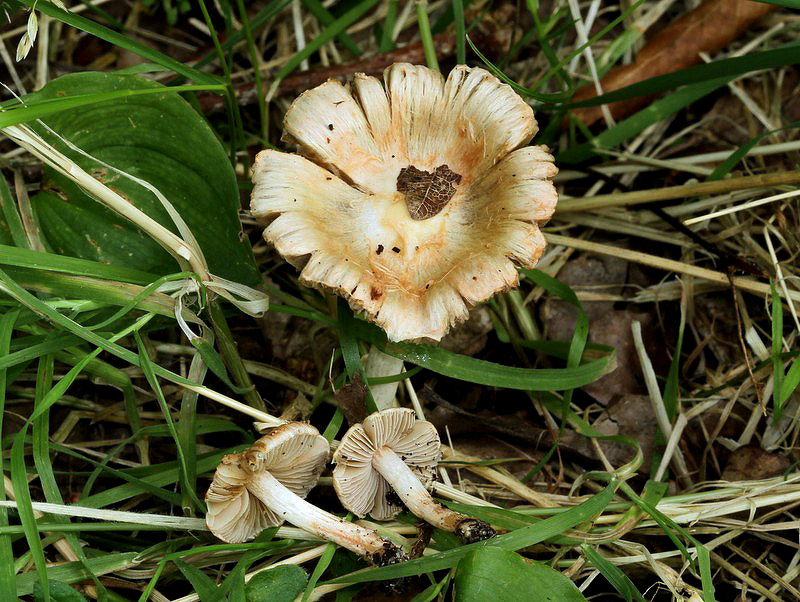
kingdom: Fungi
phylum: Basidiomycota
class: Agaricomycetes
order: Agaricales
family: Inocybaceae
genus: Inocybe
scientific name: Inocybe
